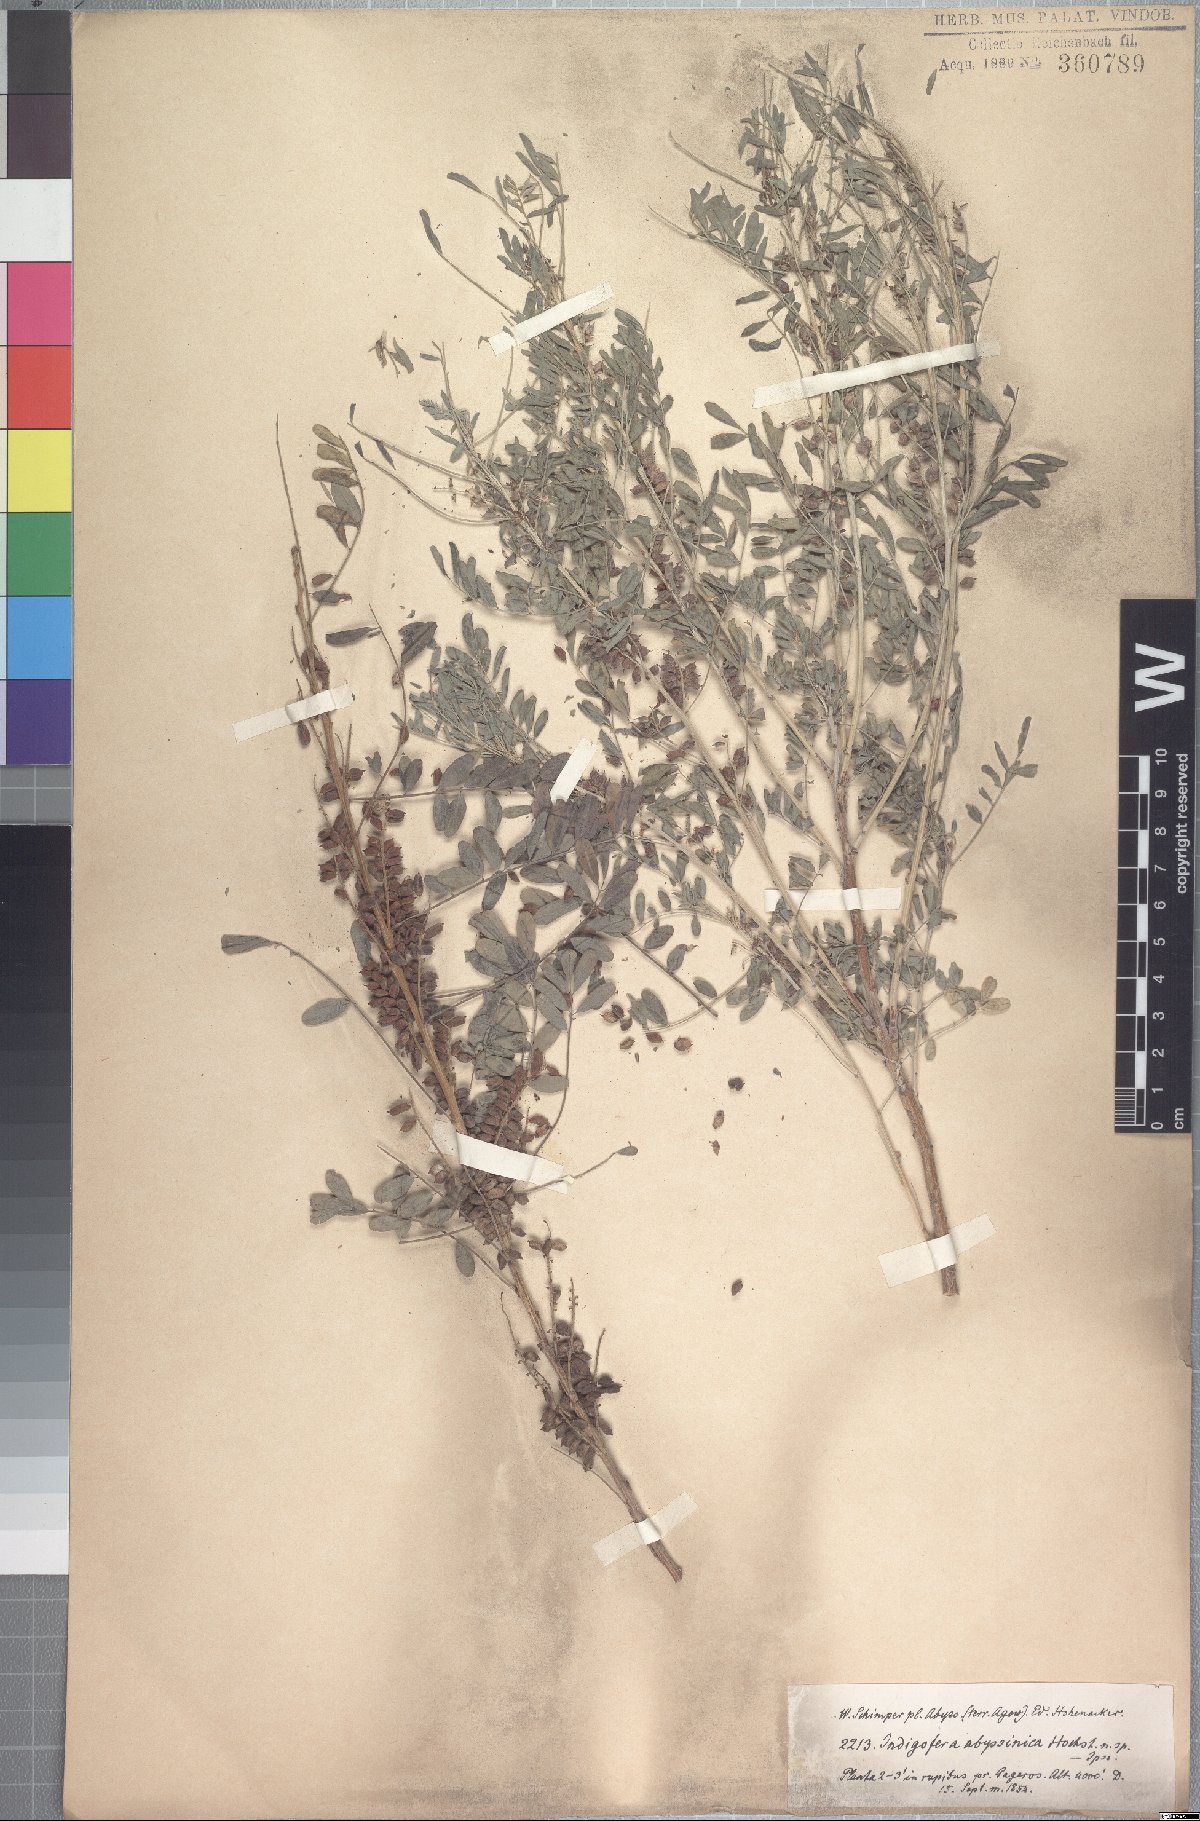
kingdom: Plantae
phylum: Tracheophyta
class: Magnoliopsida
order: Fabales
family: Fabaceae
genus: Indigofera
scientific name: Indigofera amorphoides
